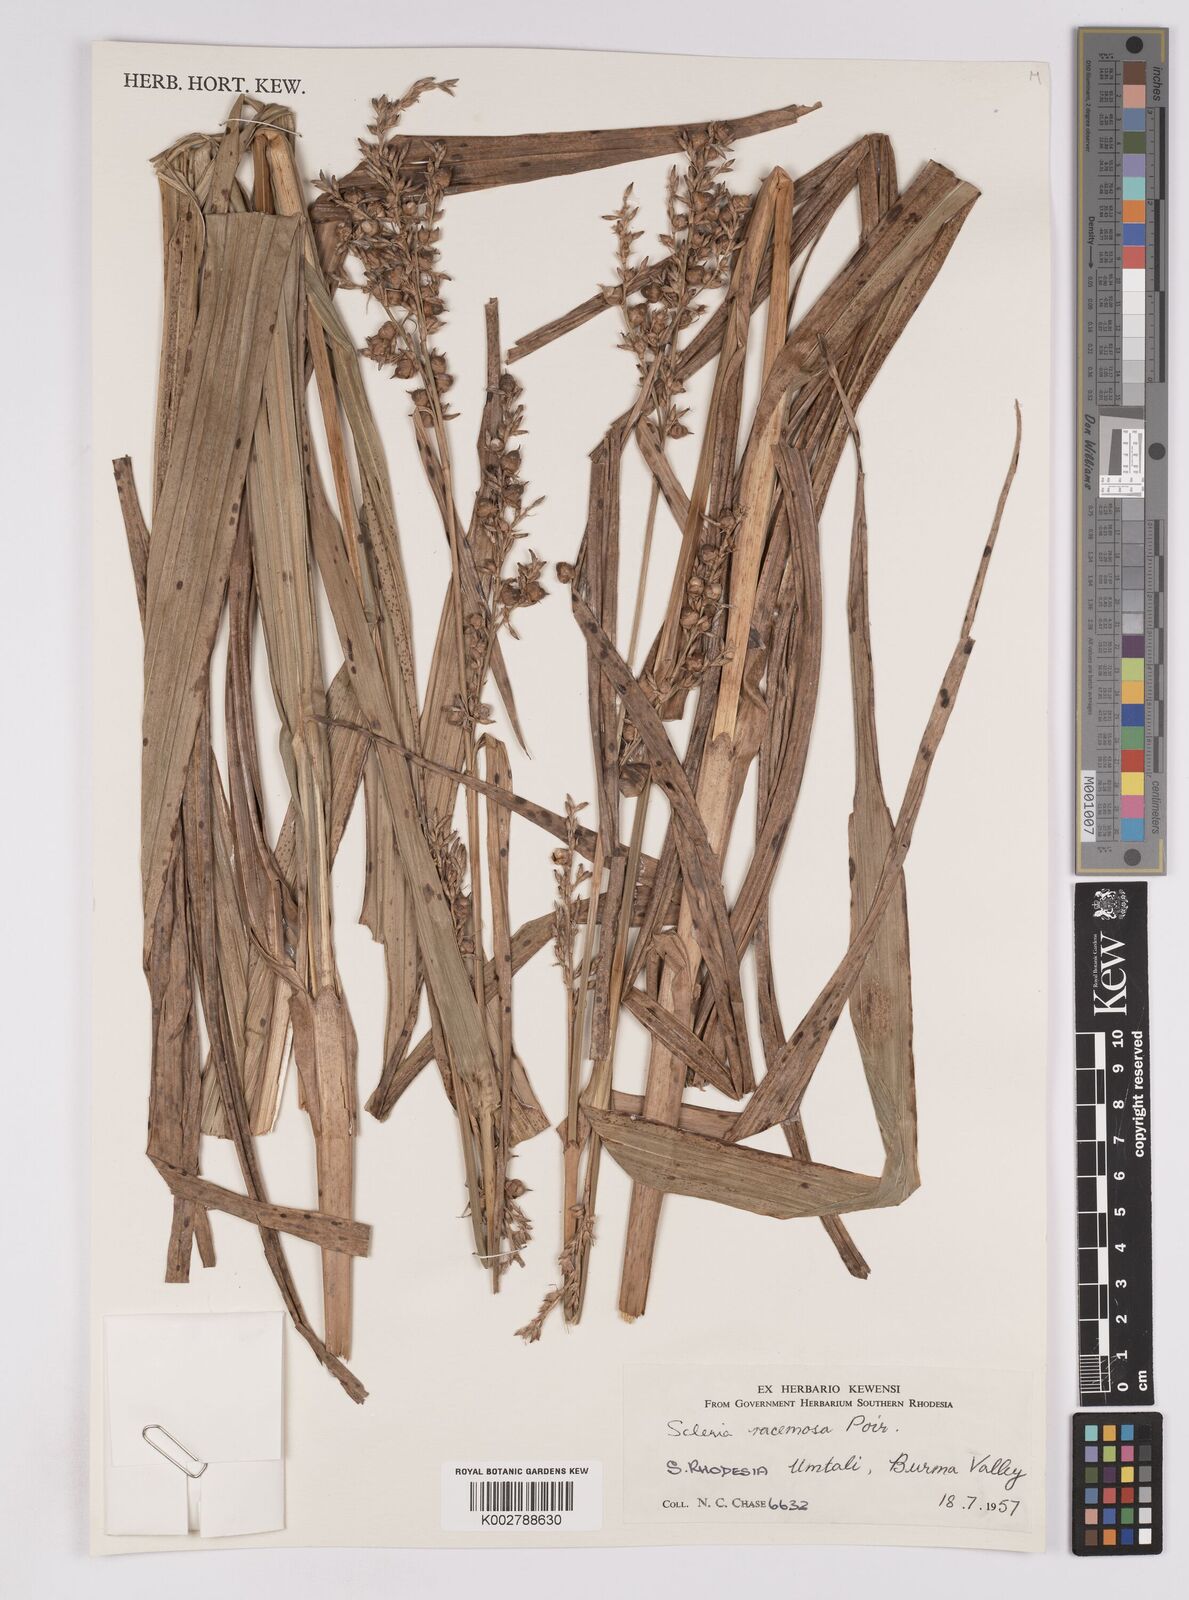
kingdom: Plantae
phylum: Tracheophyta
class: Liliopsida
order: Poales
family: Cyperaceae
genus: Scleria
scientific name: Scleria racemosa
